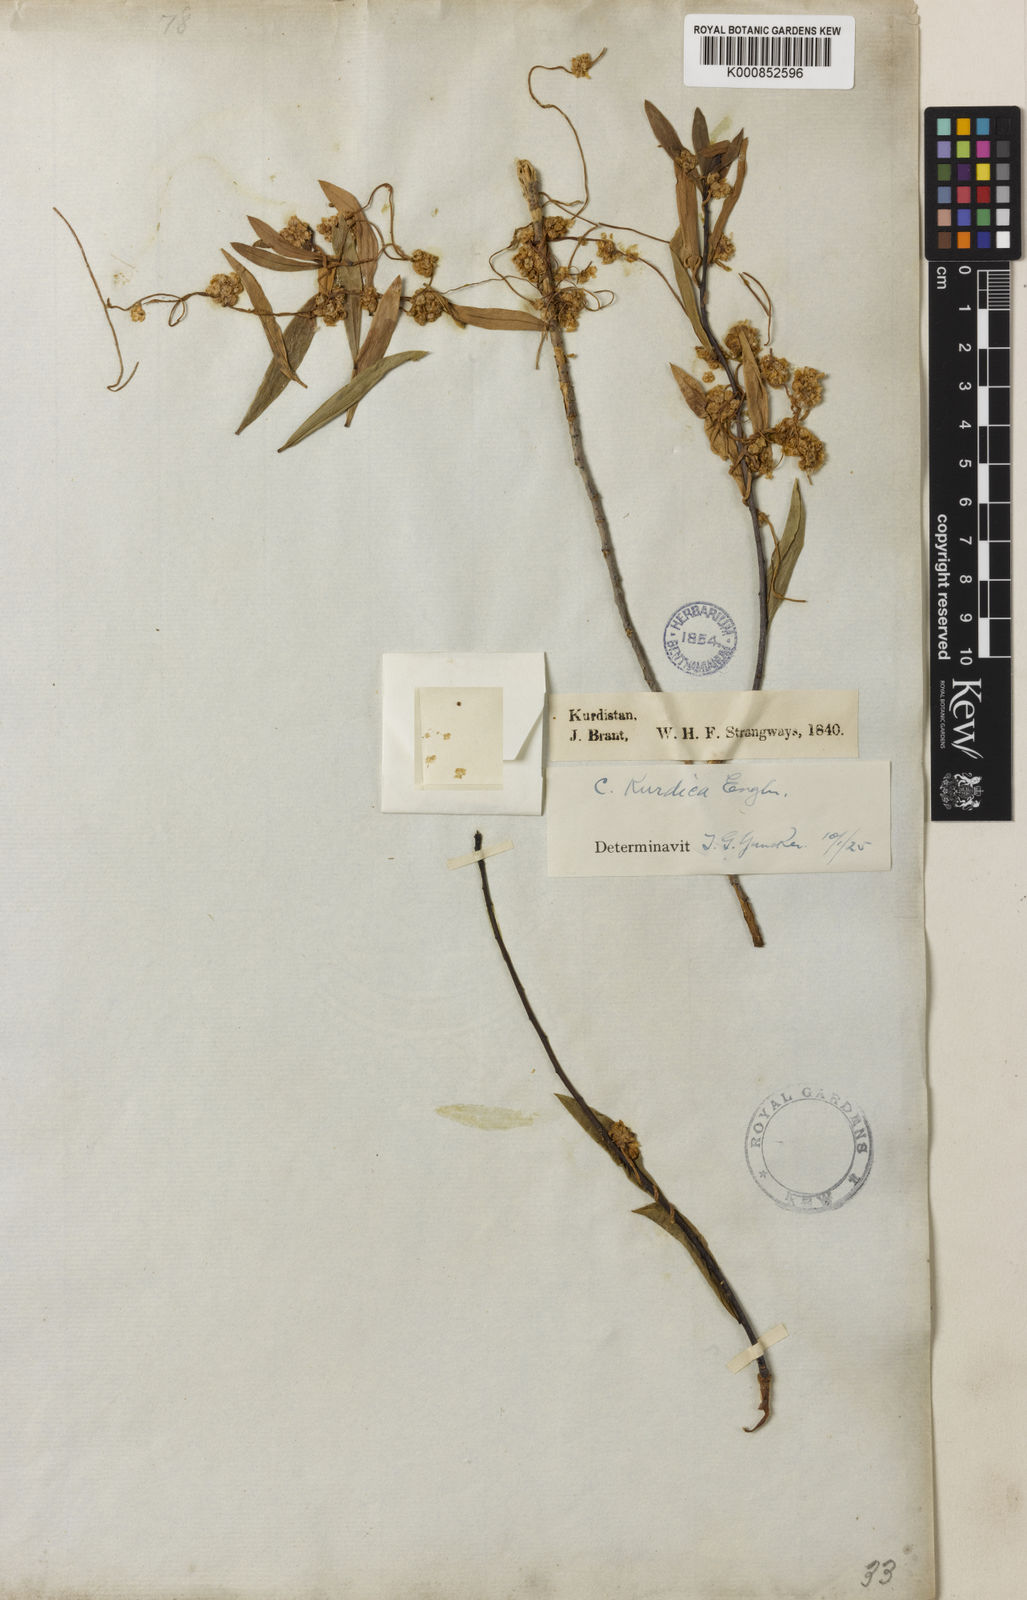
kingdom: Plantae
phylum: Tracheophyta
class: Magnoliopsida
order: Solanales
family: Convolvulaceae
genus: Cuscuta
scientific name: Cuscuta kurdica
